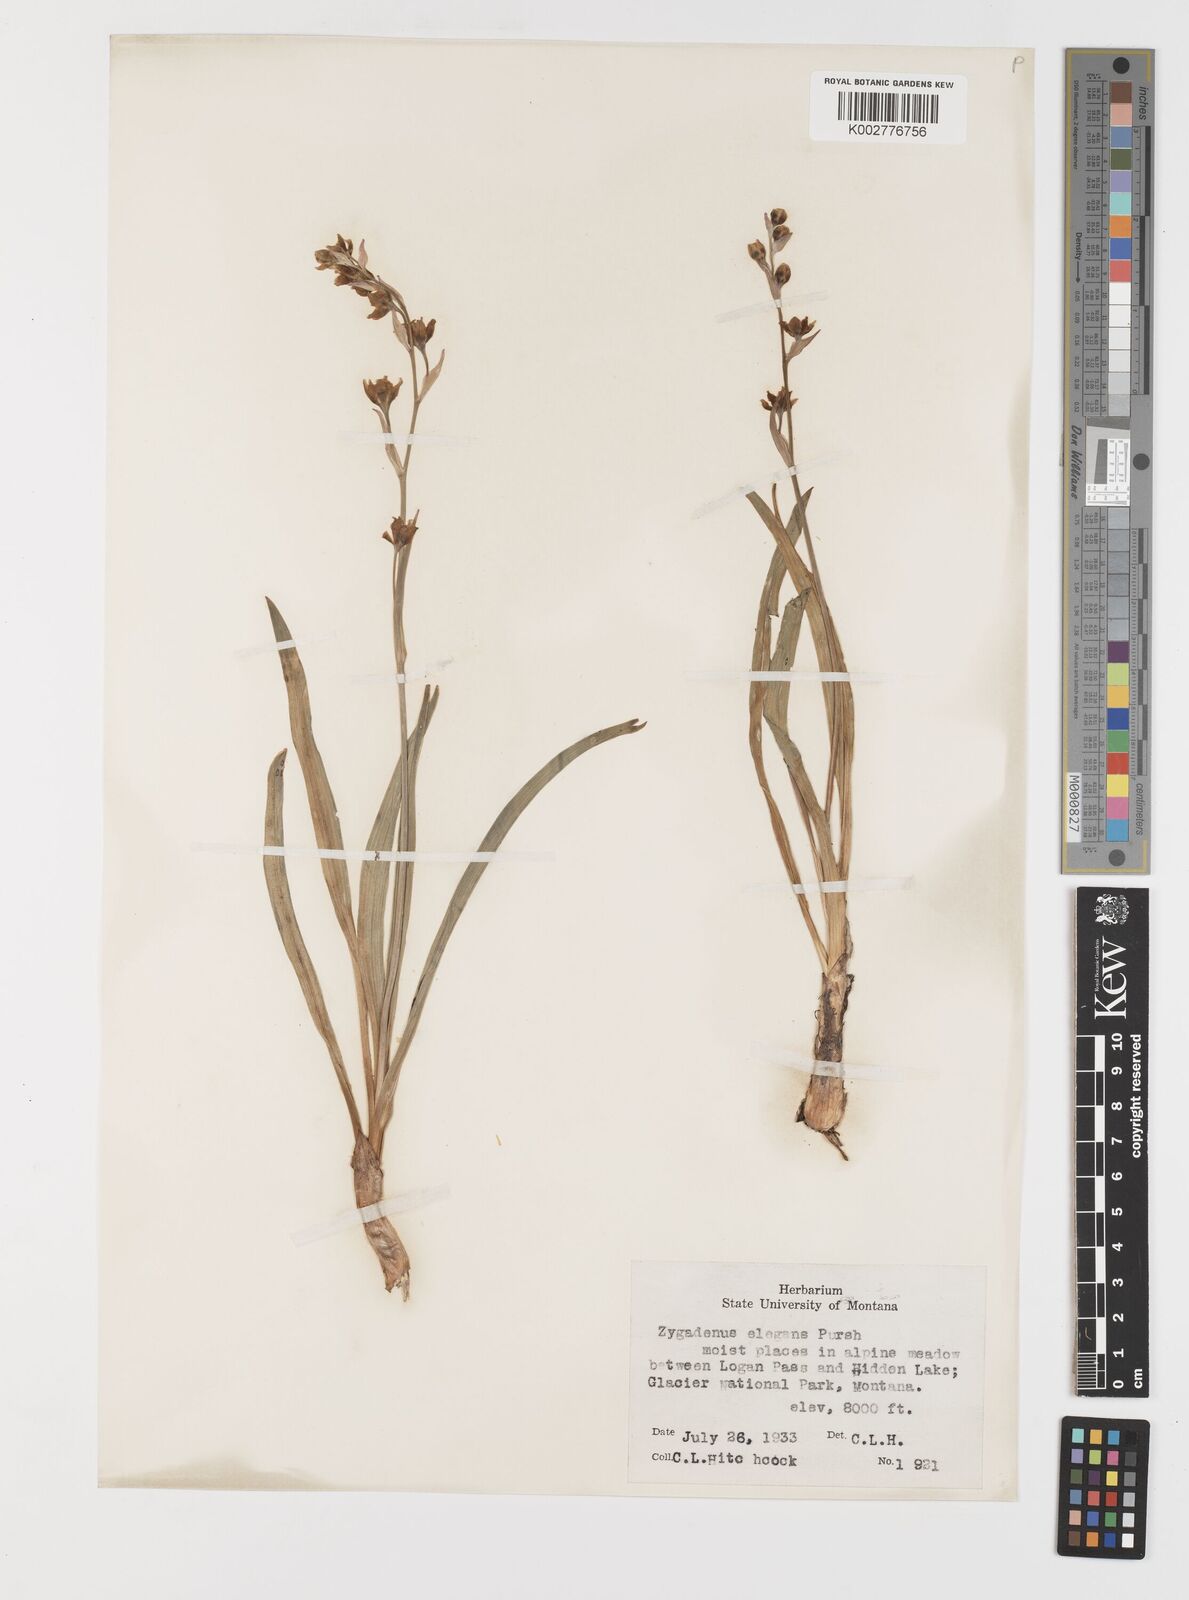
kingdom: Plantae
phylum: Tracheophyta
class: Liliopsida
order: Liliales
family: Melanthiaceae
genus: Anticlea
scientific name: Anticlea elegans
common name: Mountain death camas
